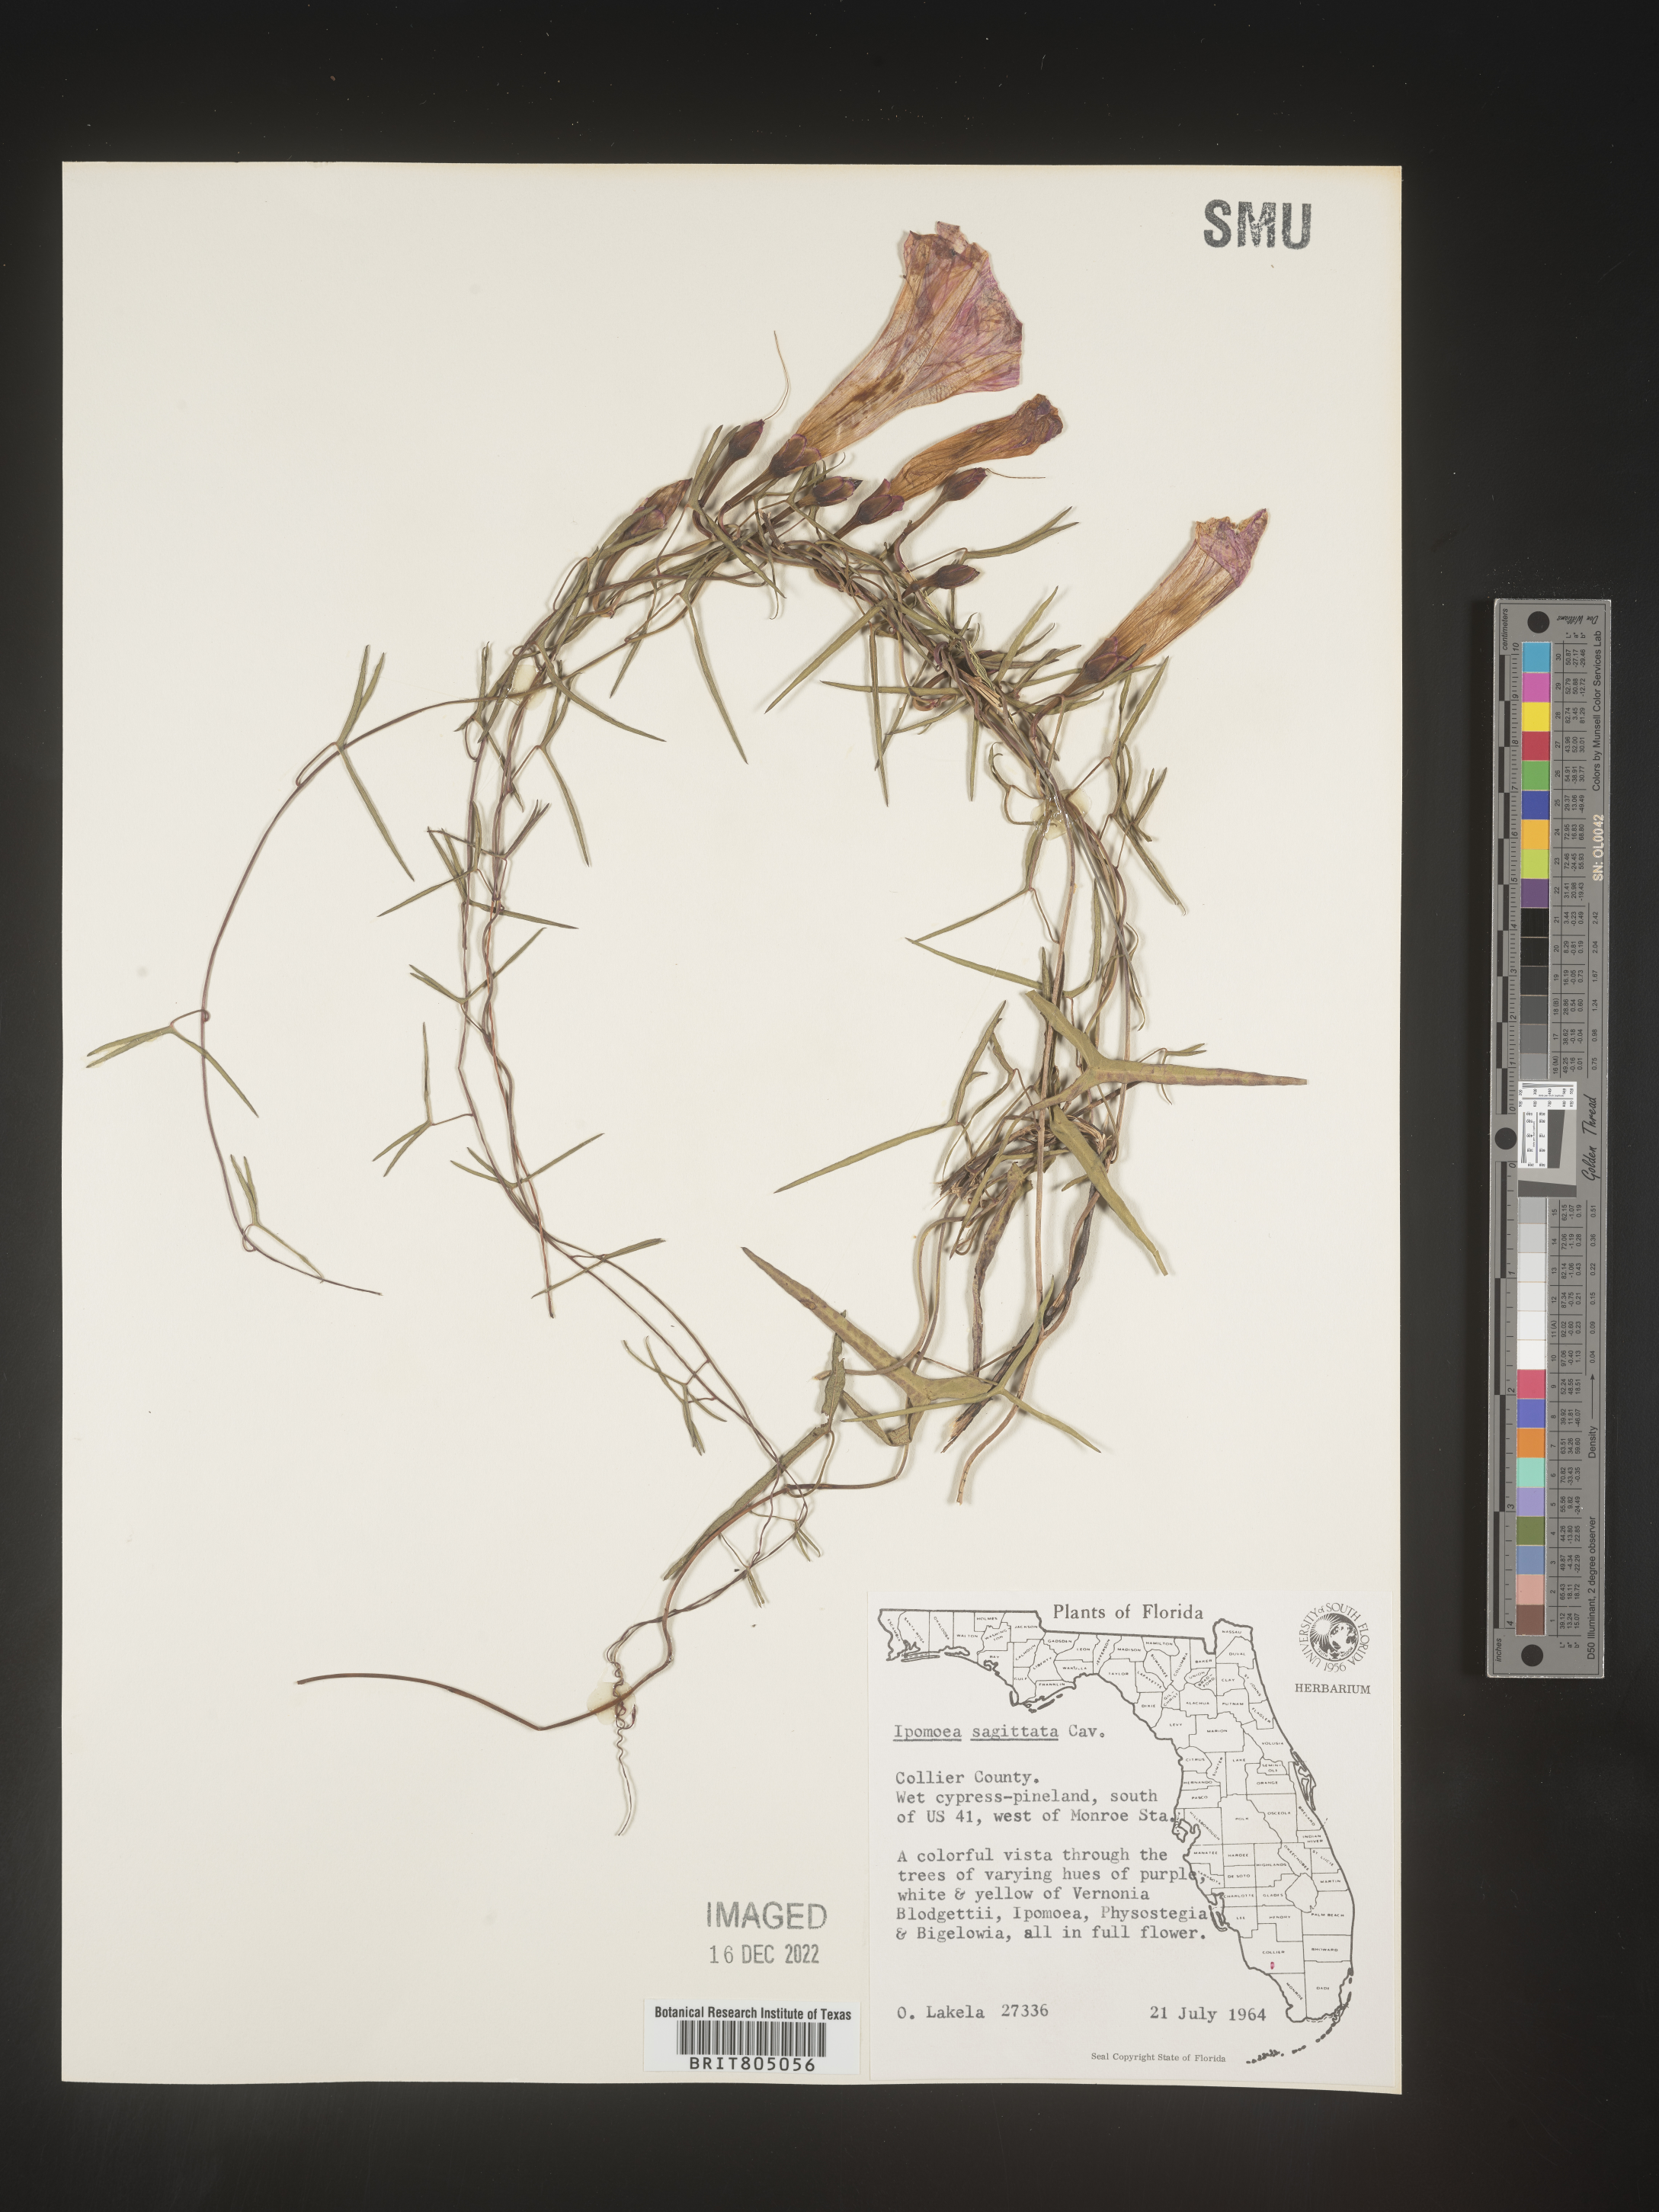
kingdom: Plantae
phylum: Tracheophyta
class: Magnoliopsida
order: Solanales
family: Convolvulaceae
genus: Ipomoea
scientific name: Ipomoea sinensis
